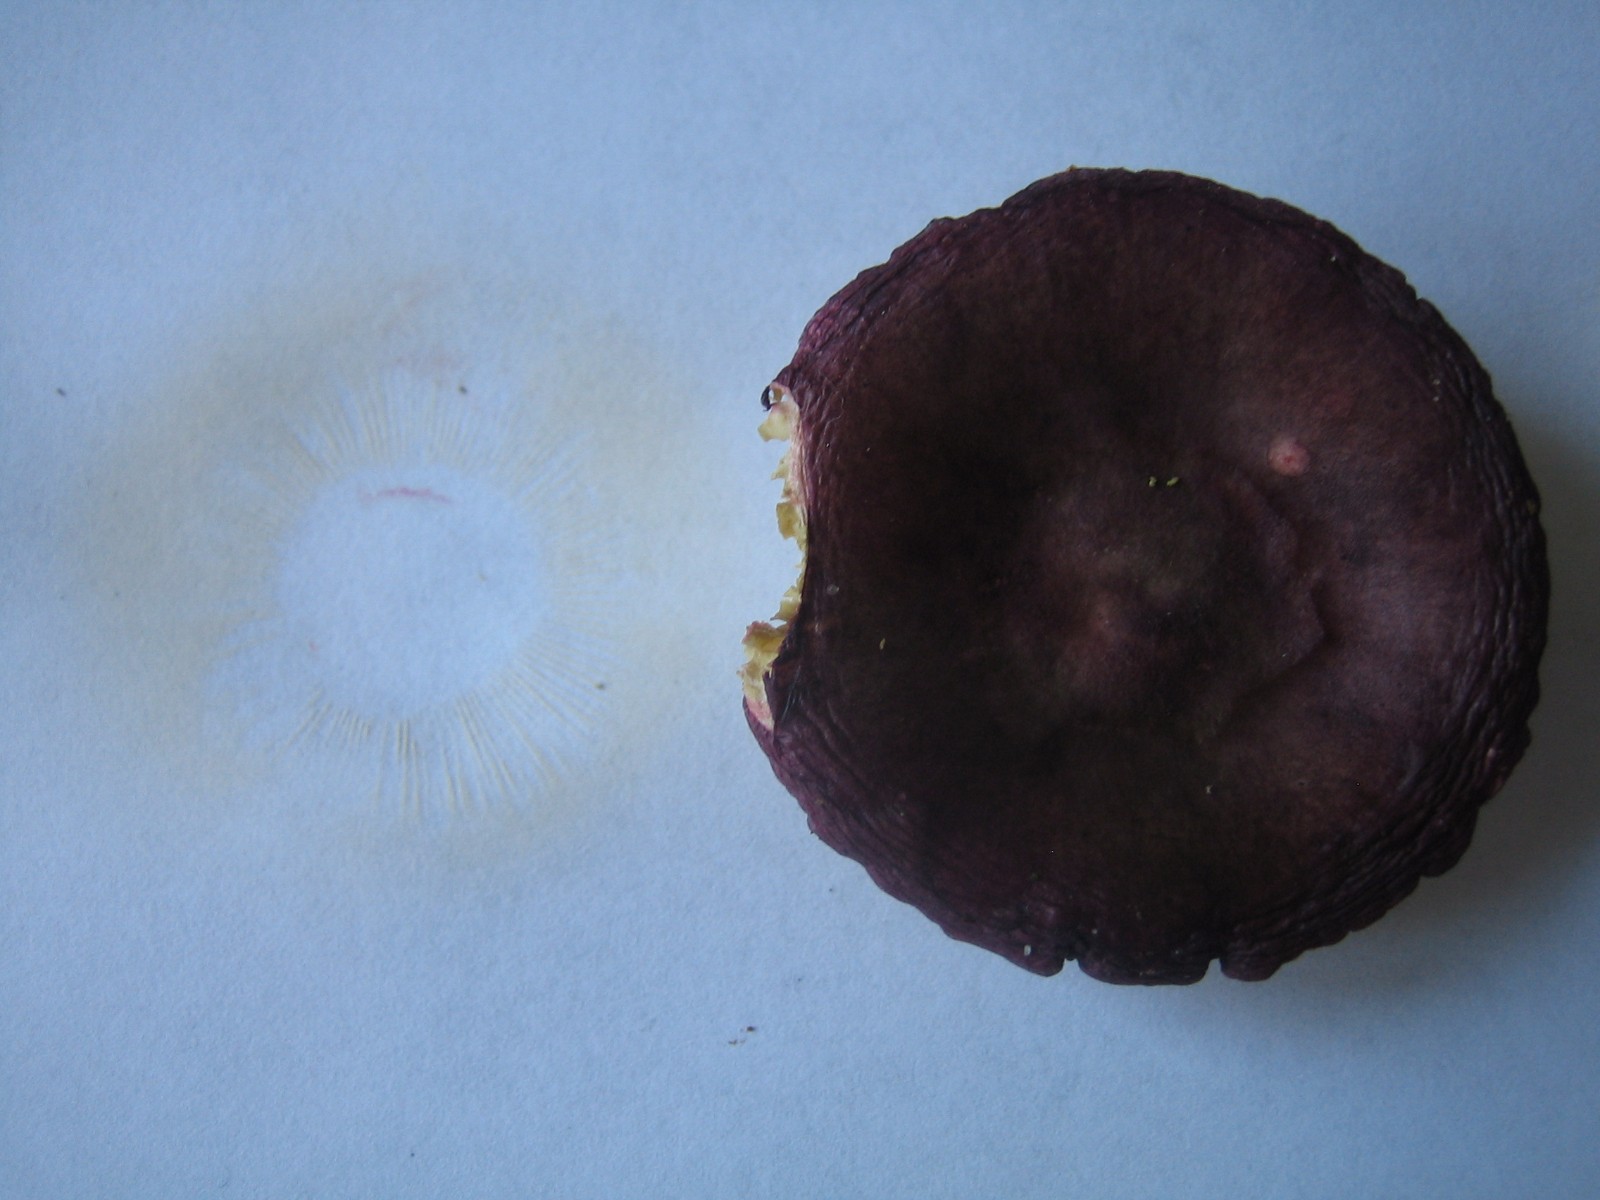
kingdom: Fungi
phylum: Basidiomycota
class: Agaricomycetes
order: Russulales
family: Russulaceae
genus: Russula
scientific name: Russula queletii
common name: Quélets skørhat
